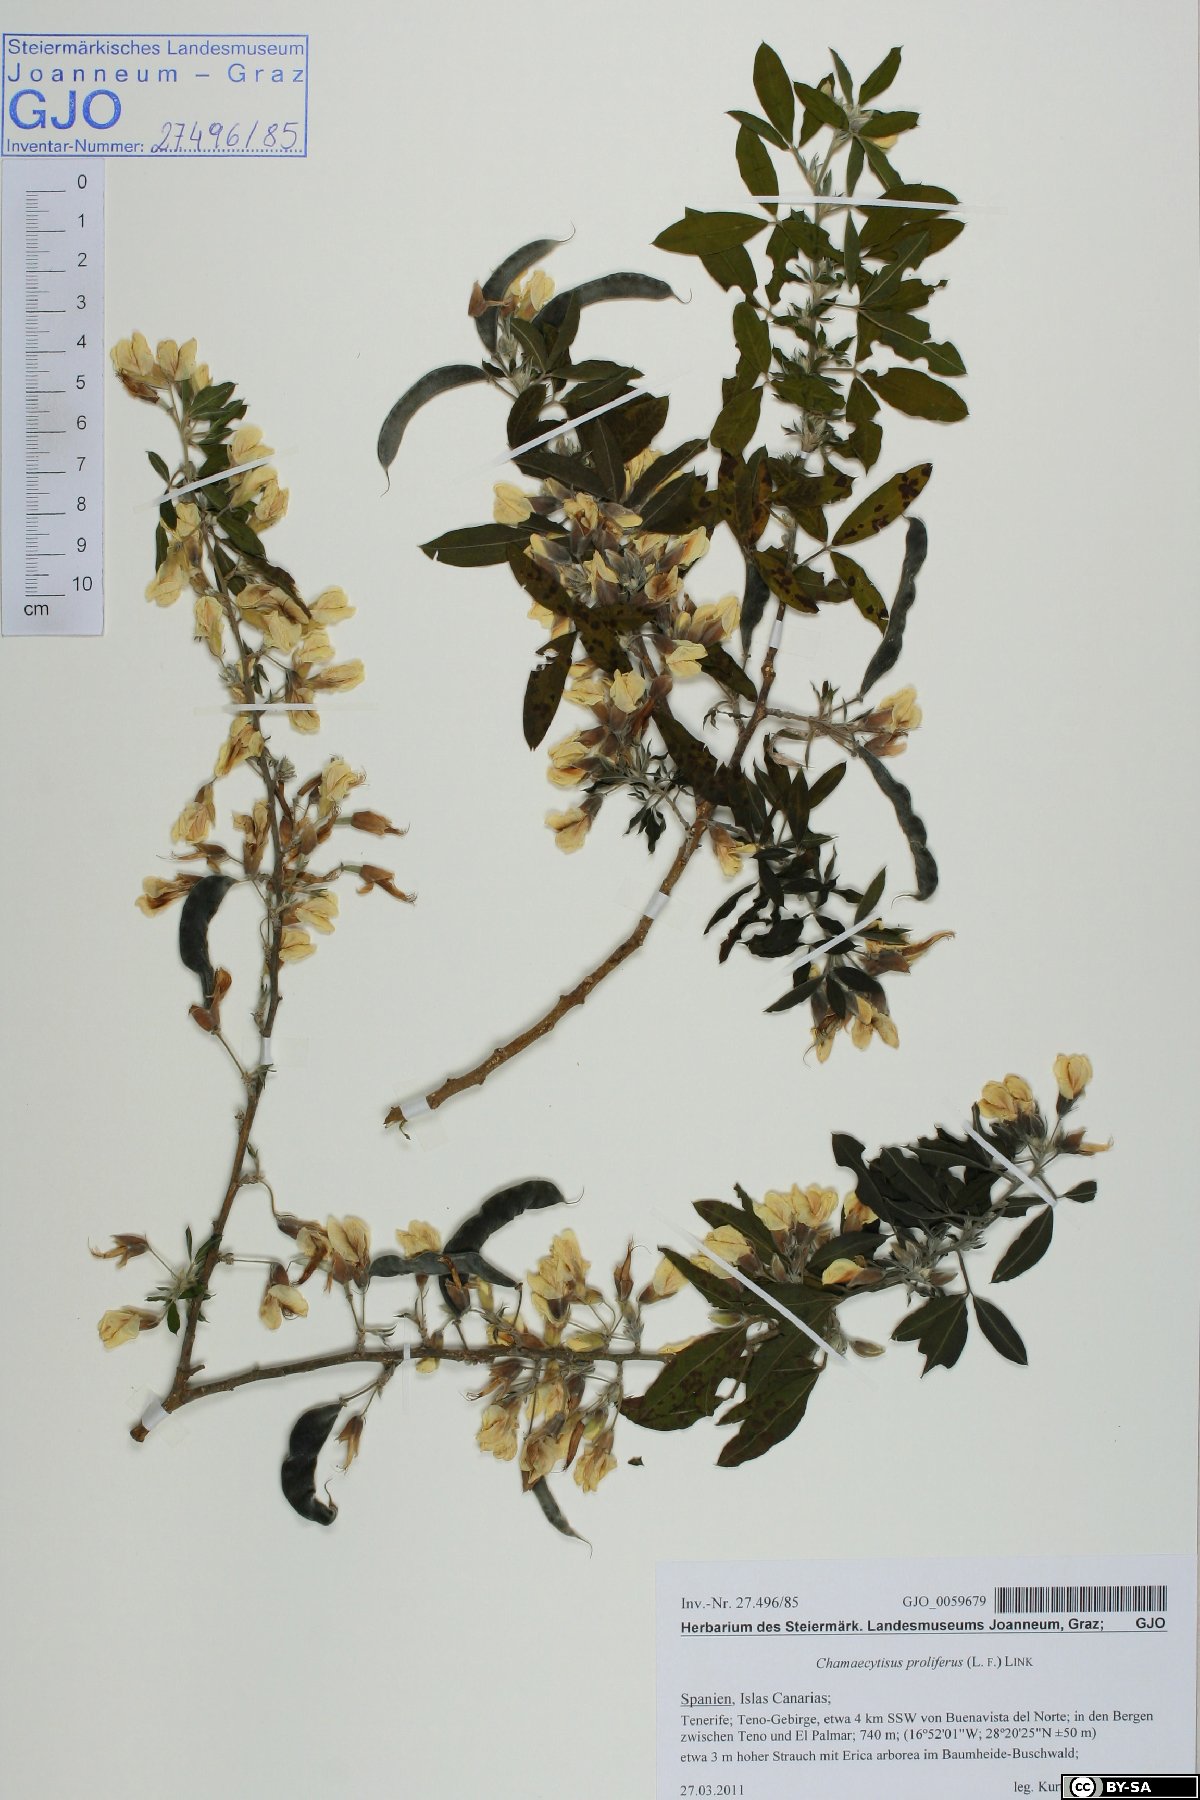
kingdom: Plantae
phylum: Tracheophyta
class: Magnoliopsida
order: Fabales
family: Fabaceae
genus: Cytisus
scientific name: Cytisus proliferus
